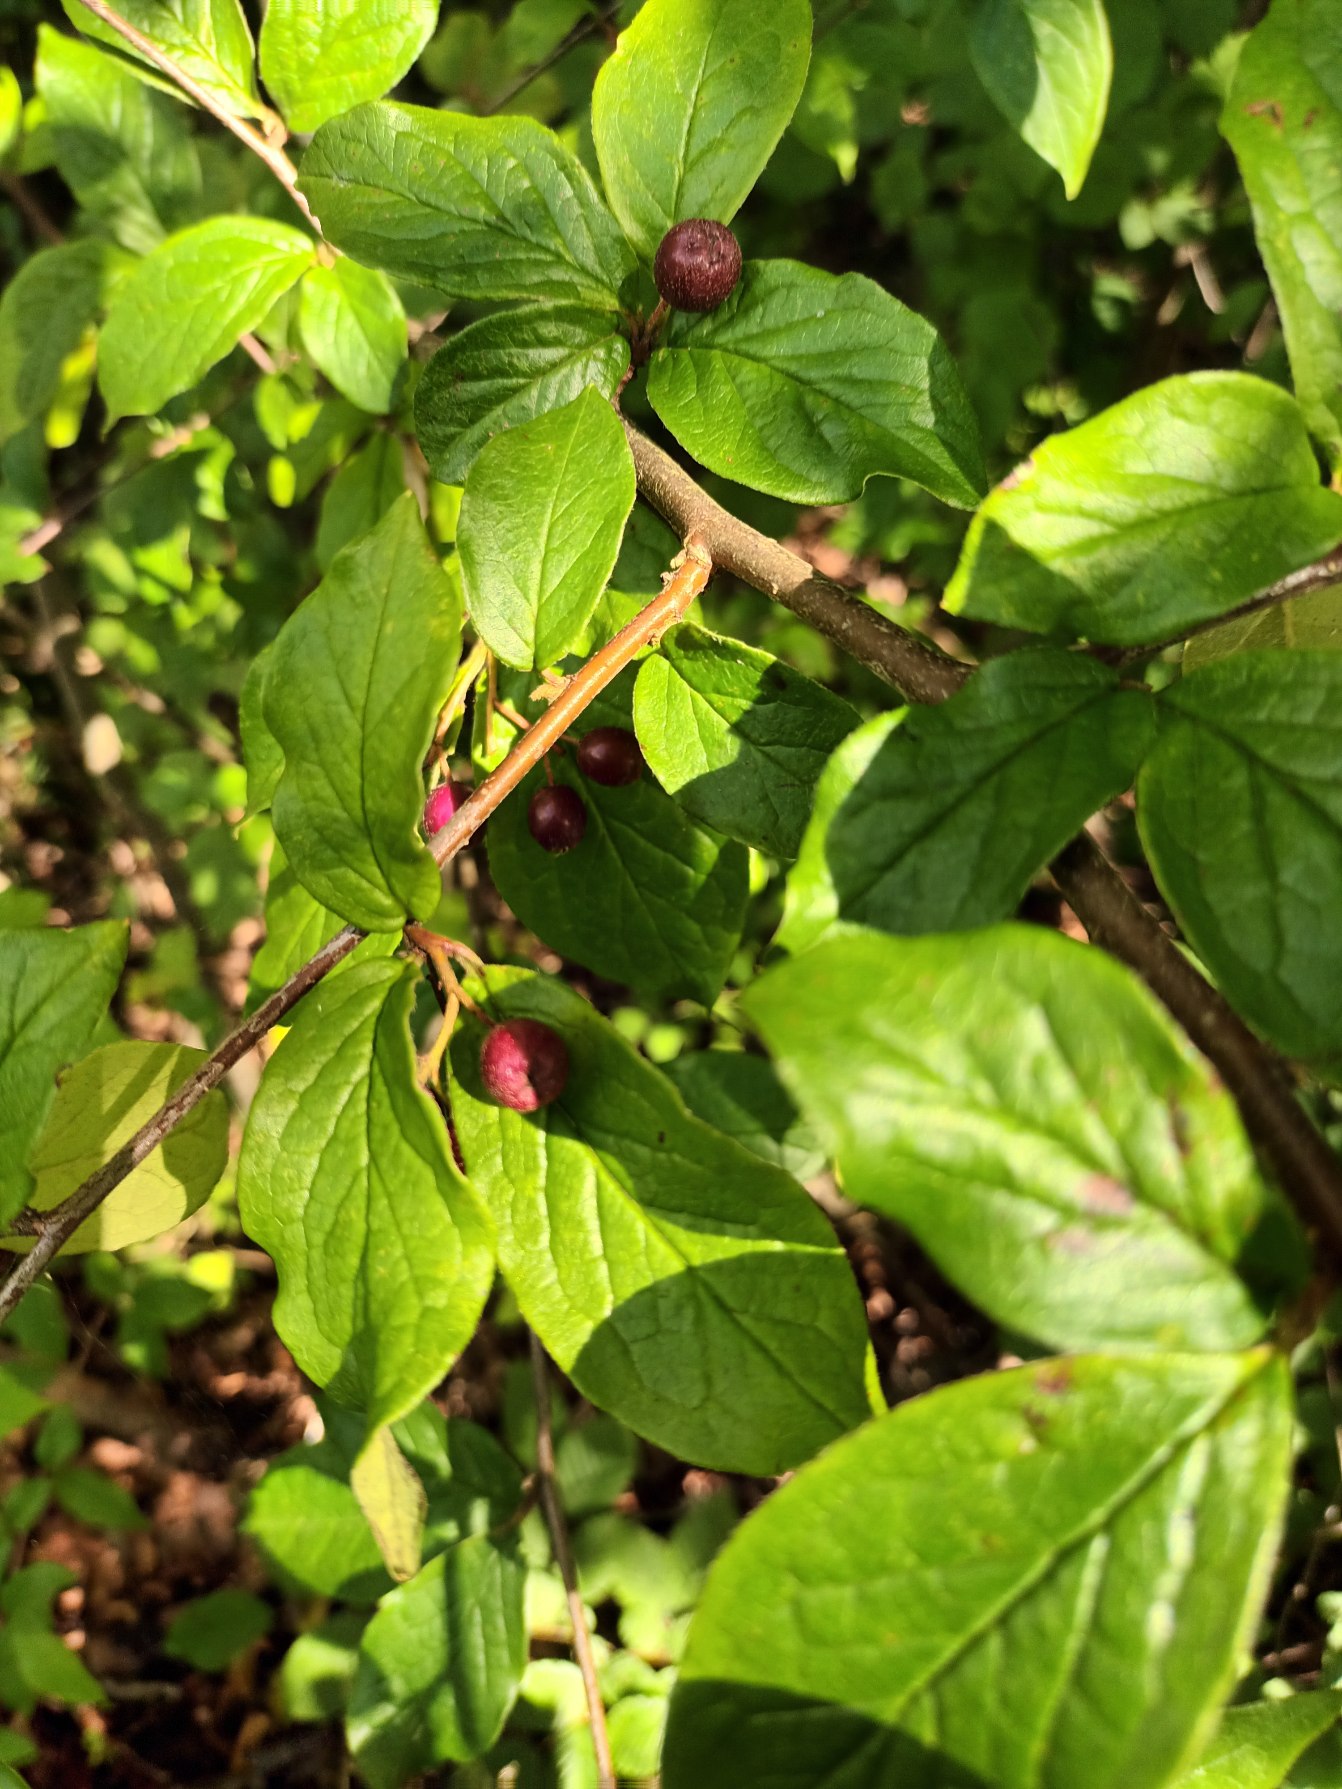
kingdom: Plantae
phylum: Tracheophyta
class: Magnoliopsida
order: Rosales
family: Rosaceae
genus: Cotoneaster
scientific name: Cotoneaster moupinensis
